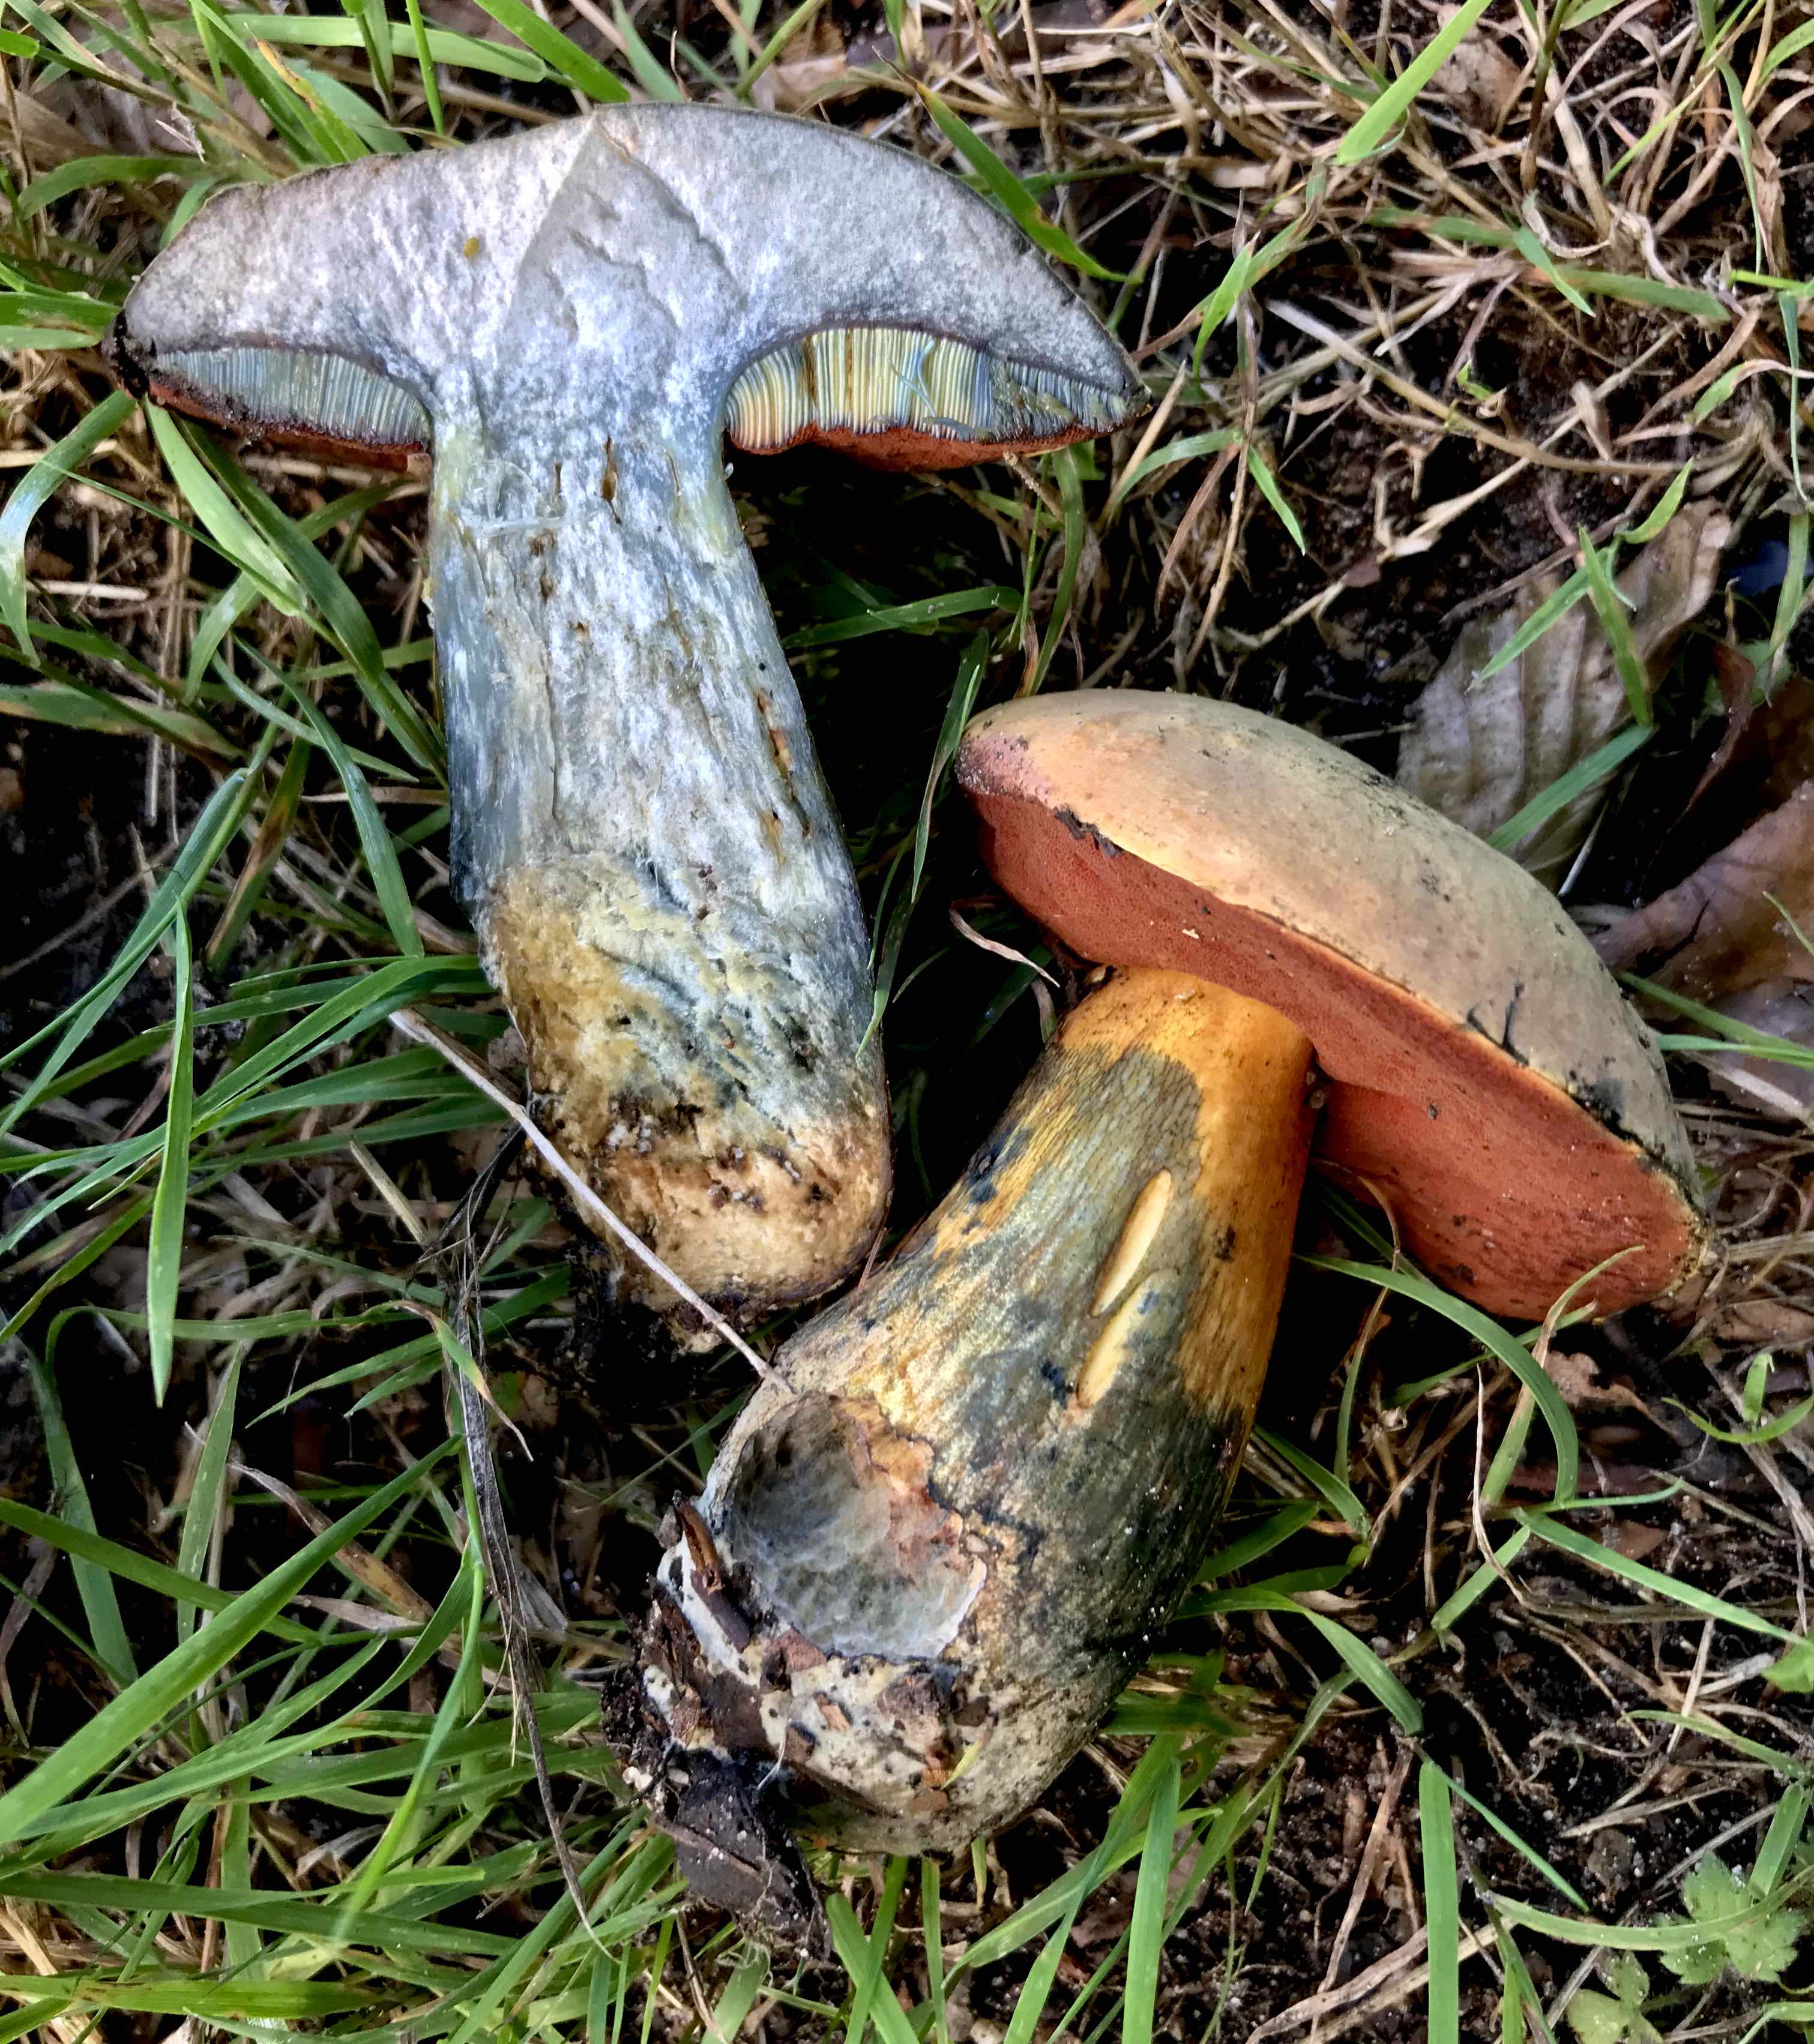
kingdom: Fungi
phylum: Basidiomycota
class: Agaricomycetes
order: Boletales
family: Boletaceae
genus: Suillellus
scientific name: Suillellus luridus
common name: netstokket indigorørhat
